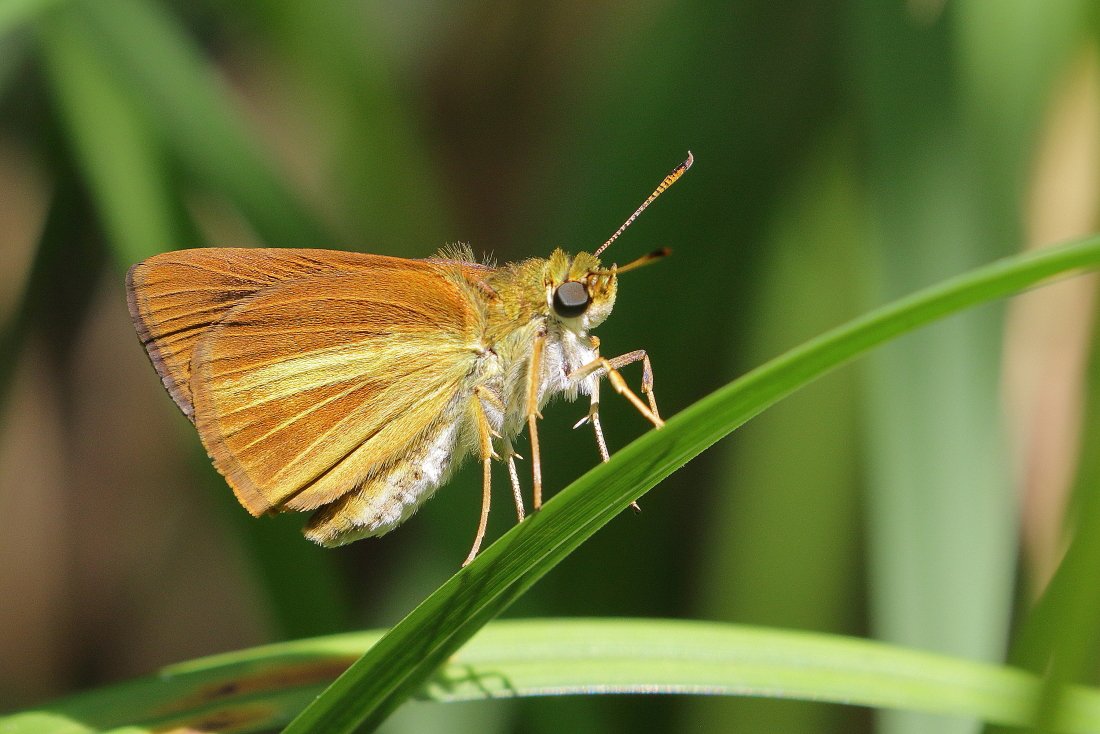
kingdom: Animalia
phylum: Arthropoda
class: Insecta
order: Lepidoptera
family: Hesperiidae
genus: Euphyes
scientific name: Euphyes dukesi
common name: Dukes' Skipper
